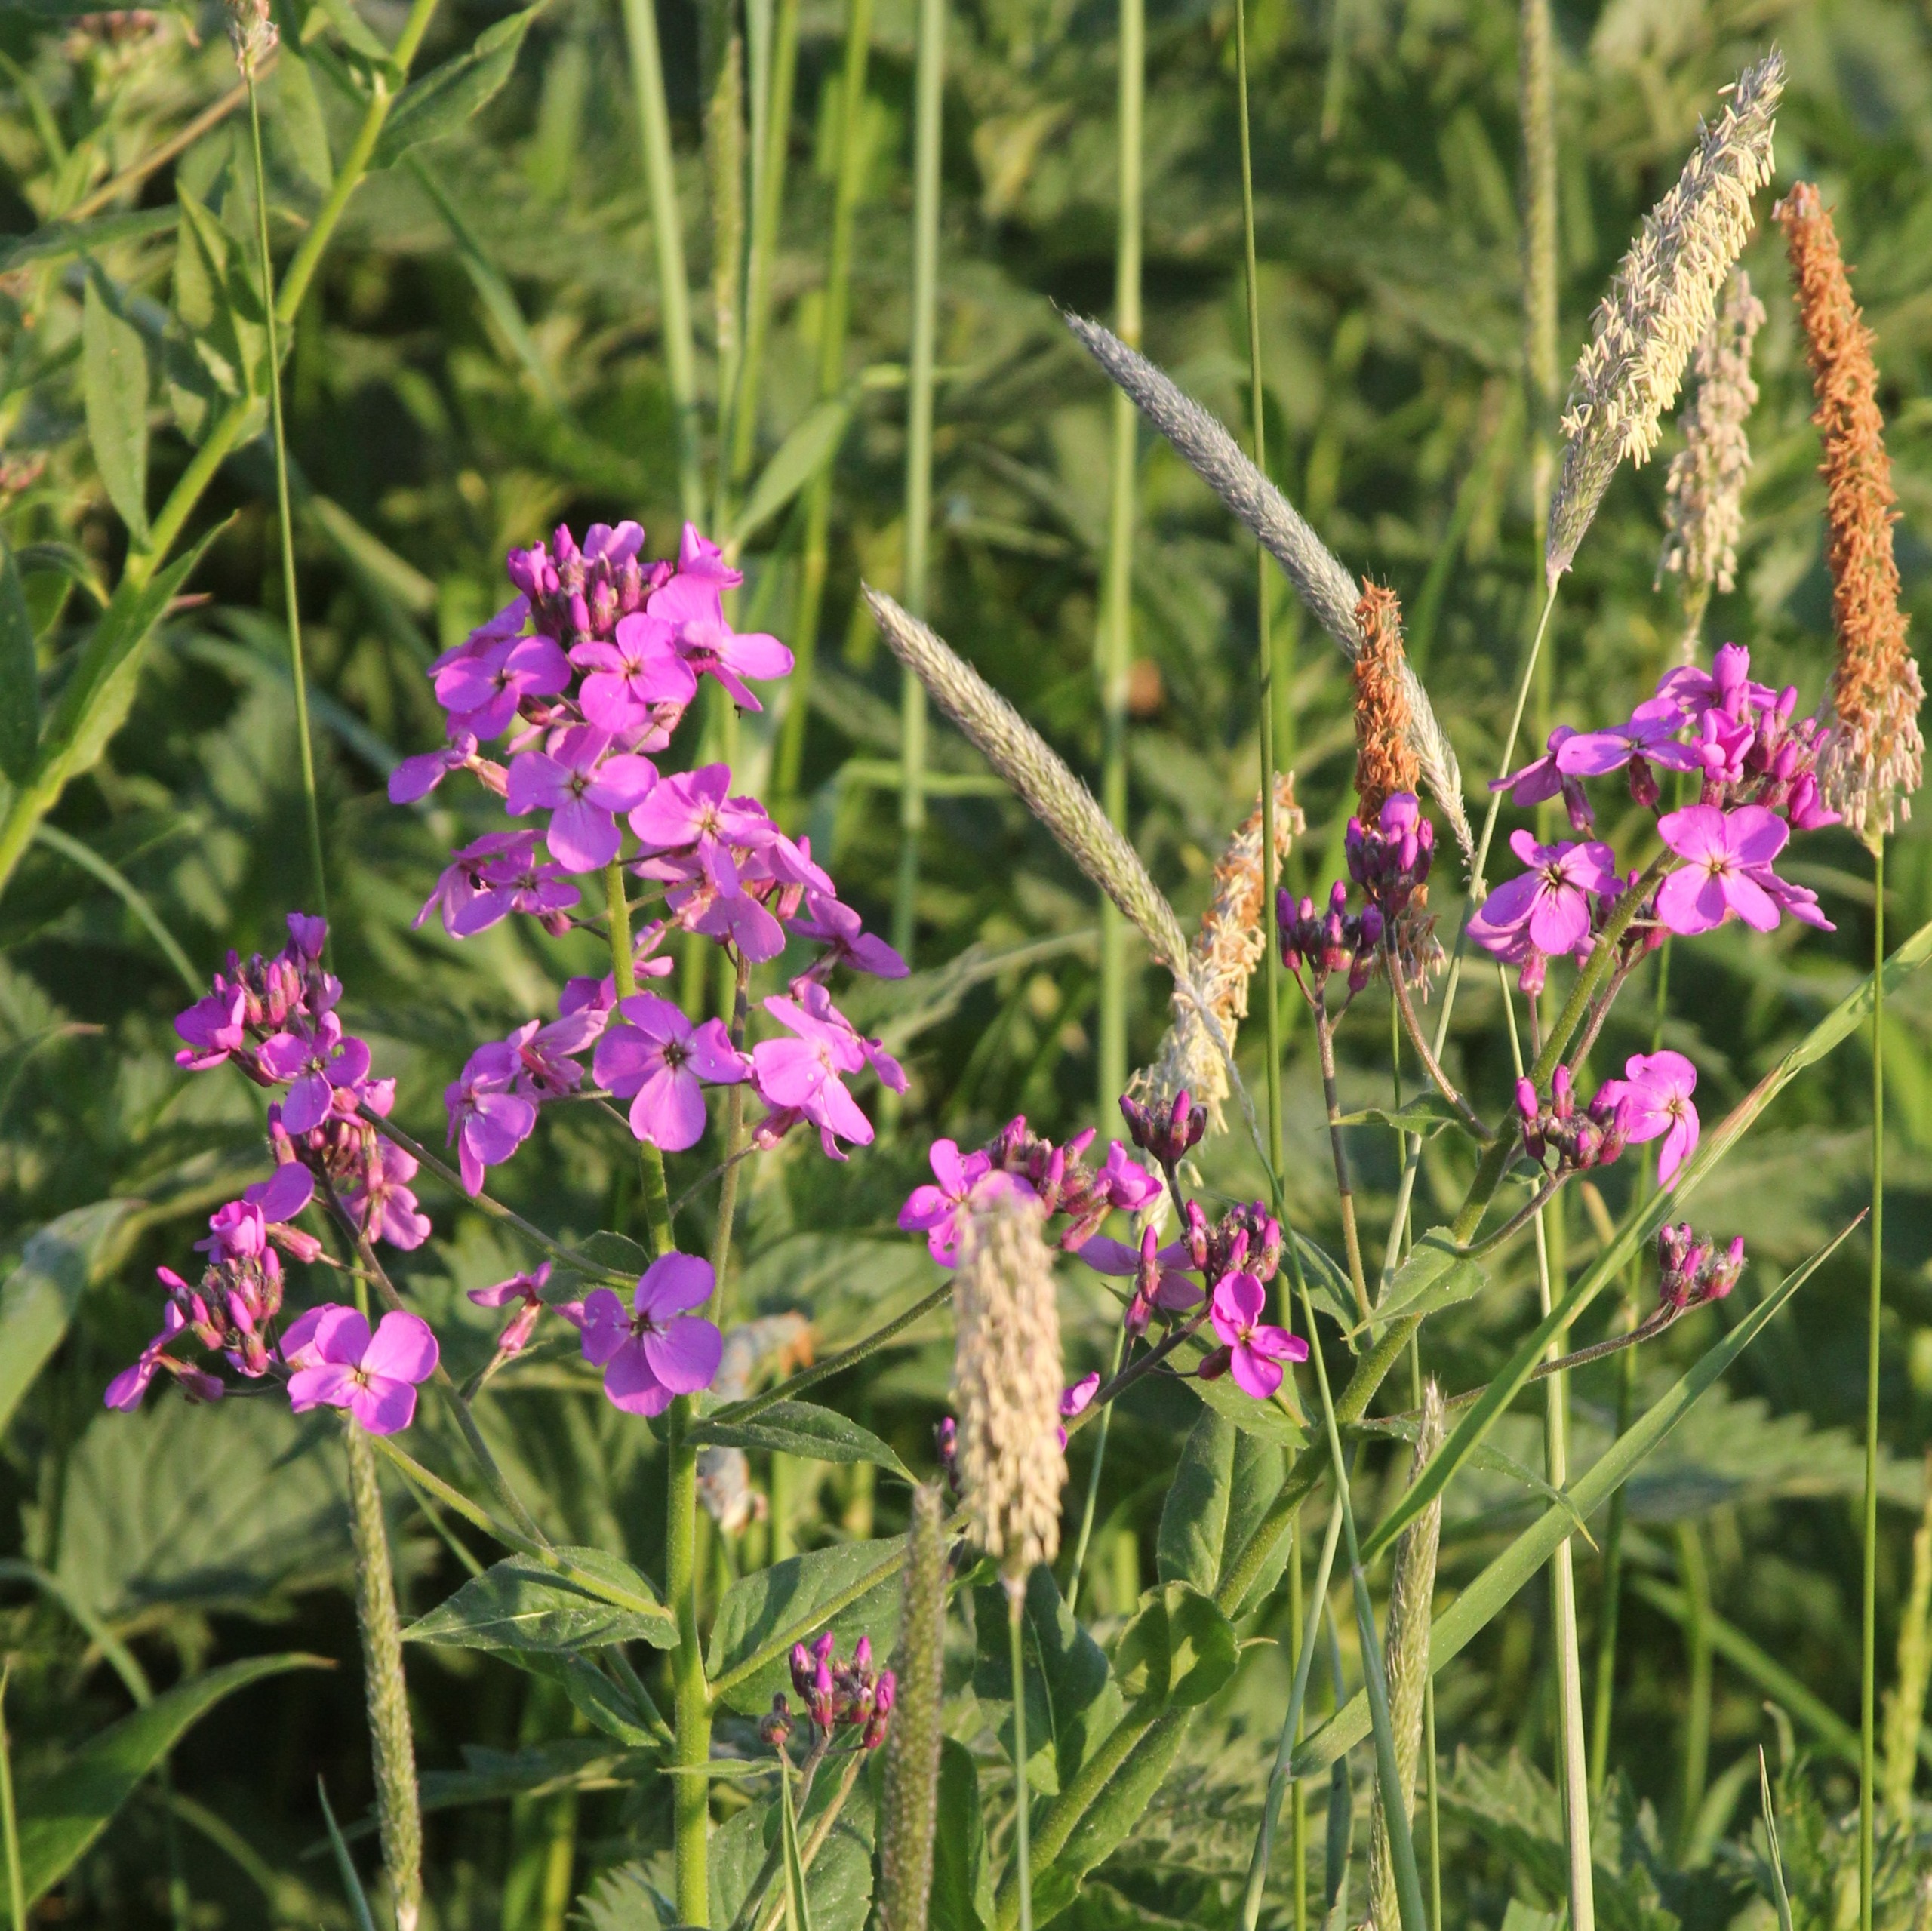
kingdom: Plantae
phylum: Tracheophyta
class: Magnoliopsida
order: Brassicales
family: Brassicaceae
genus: Hesperis
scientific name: Hesperis matronalis
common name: Aftenstjerne
